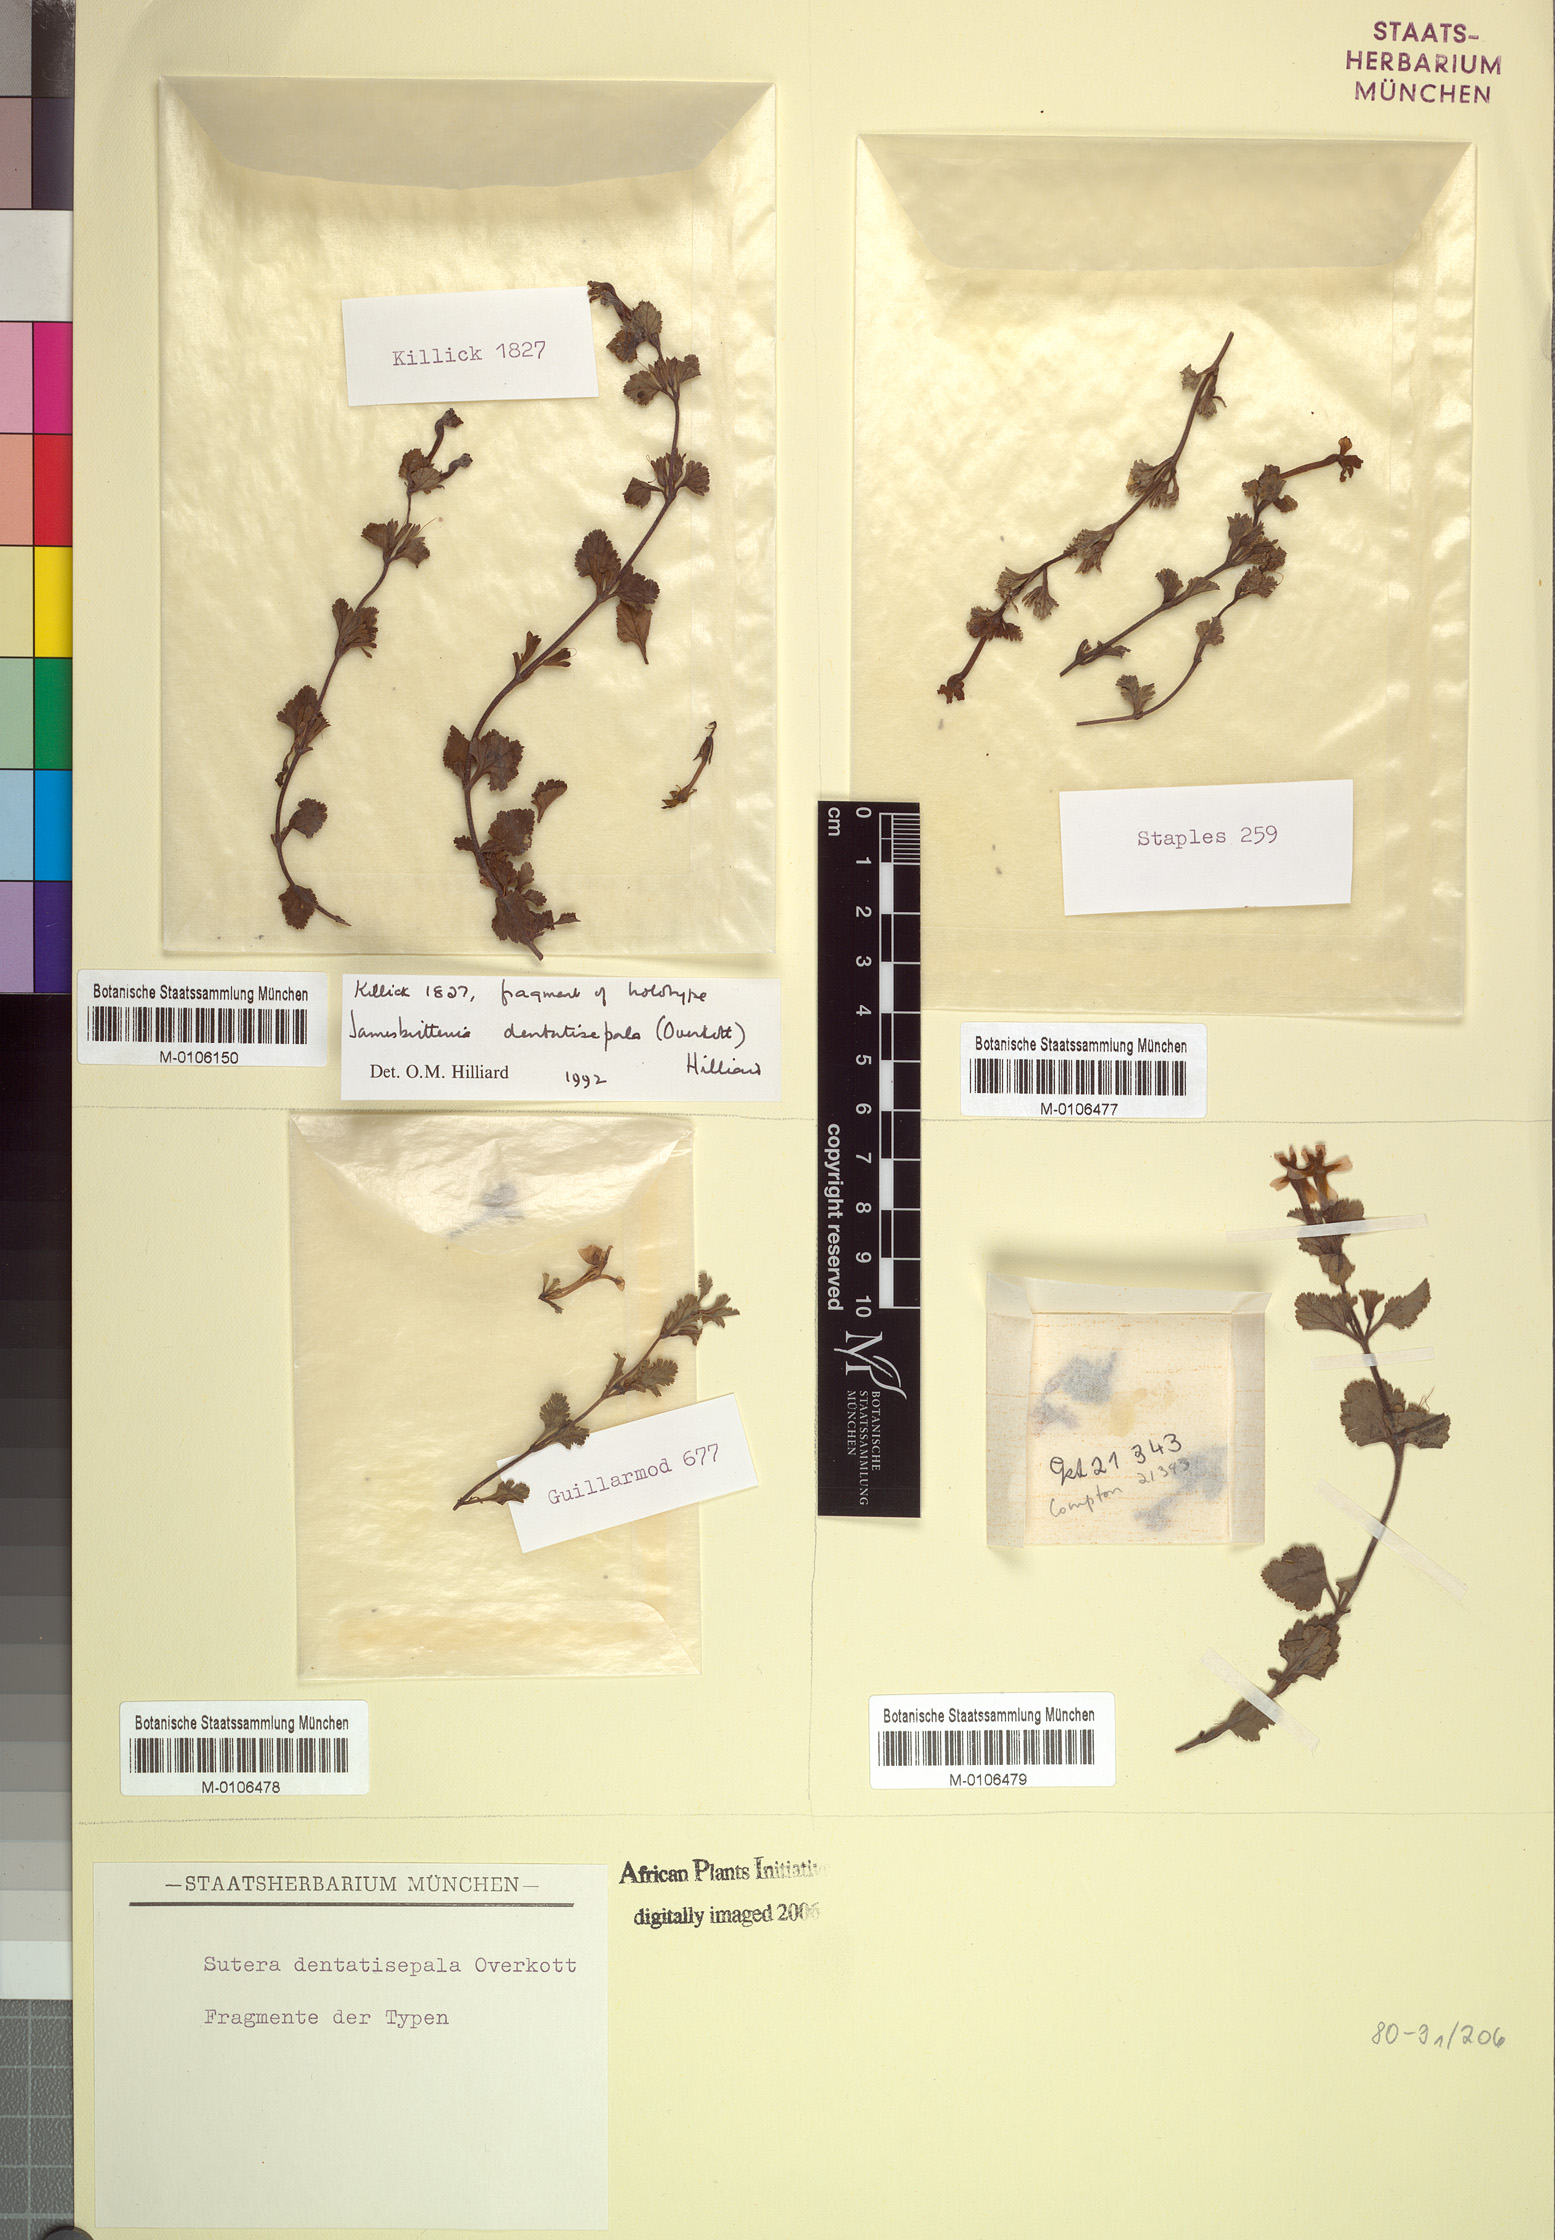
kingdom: Plantae
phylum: Tracheophyta
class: Magnoliopsida
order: Lamiales
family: Scrophulariaceae
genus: Jamesbrittenia
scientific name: Jamesbrittenia dentatisepala
